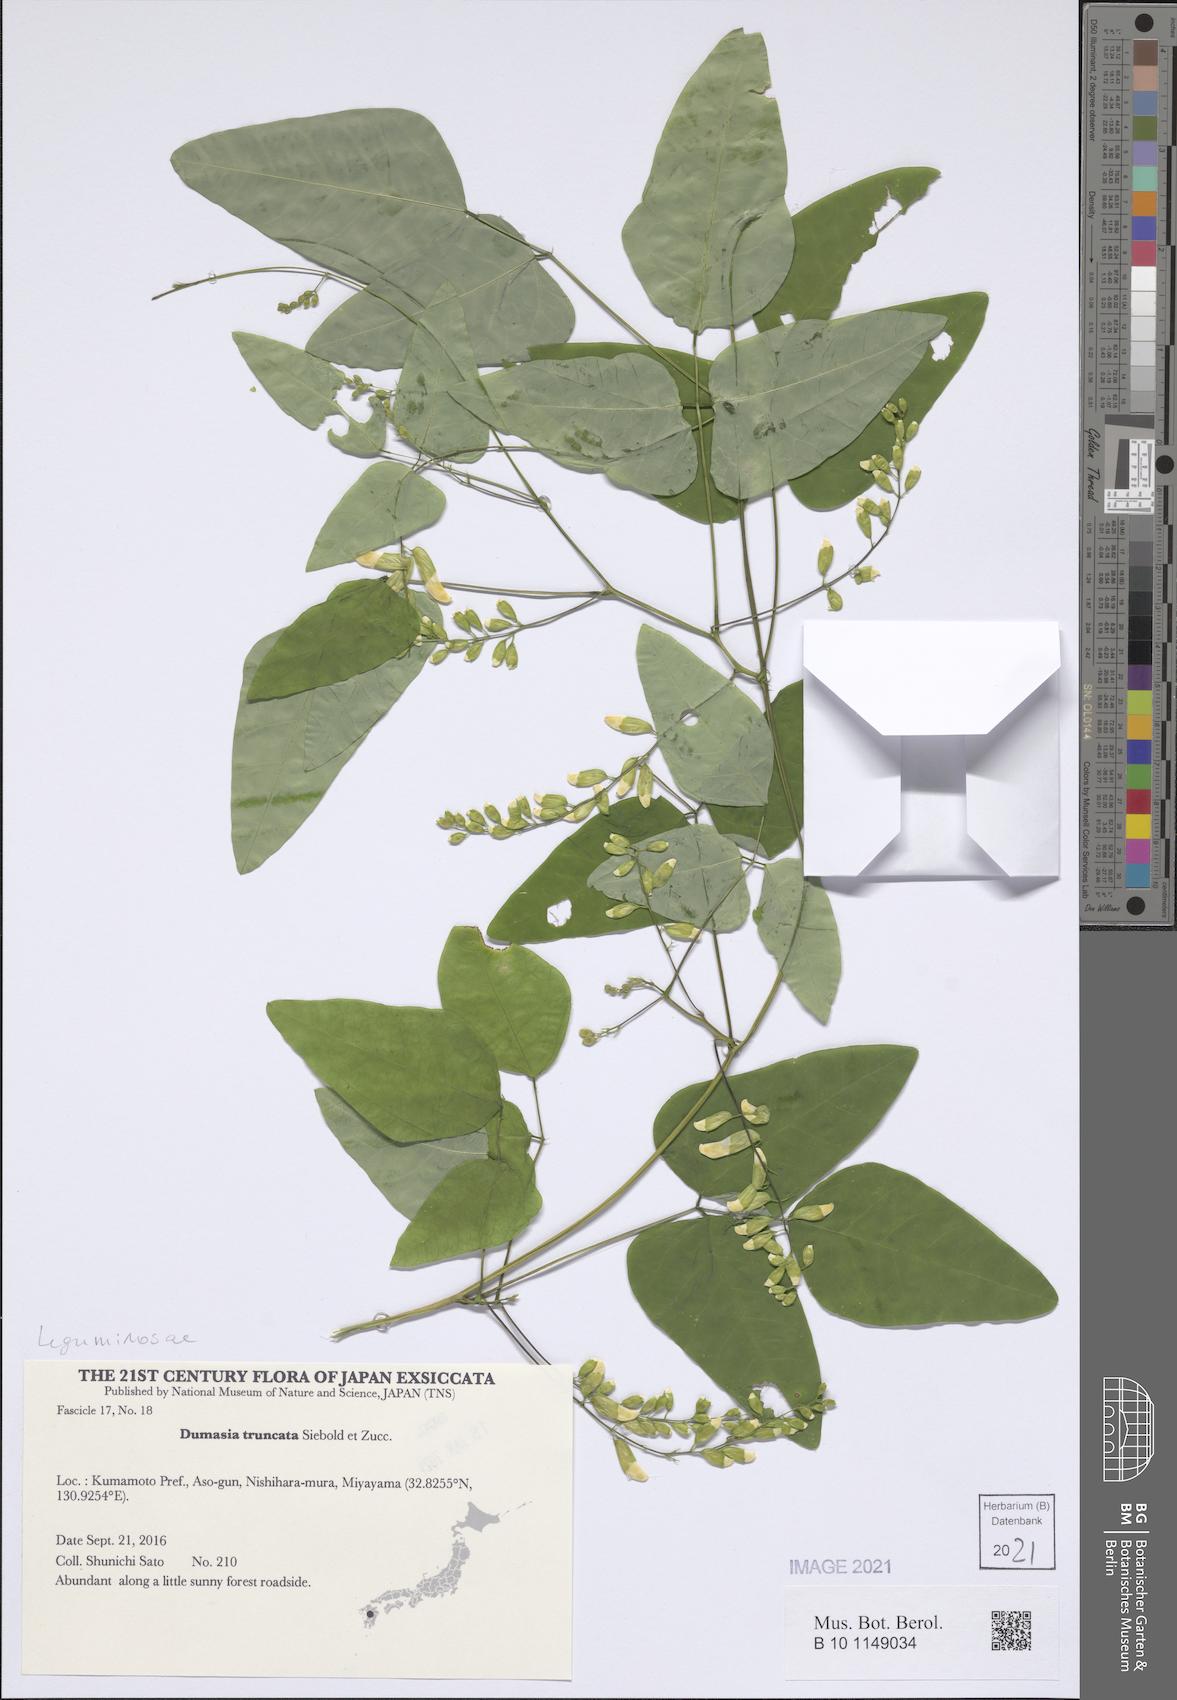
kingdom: Plantae
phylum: Tracheophyta
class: Magnoliopsida
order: Fabales
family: Fabaceae
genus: Dumasia
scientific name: Dumasia truncata
